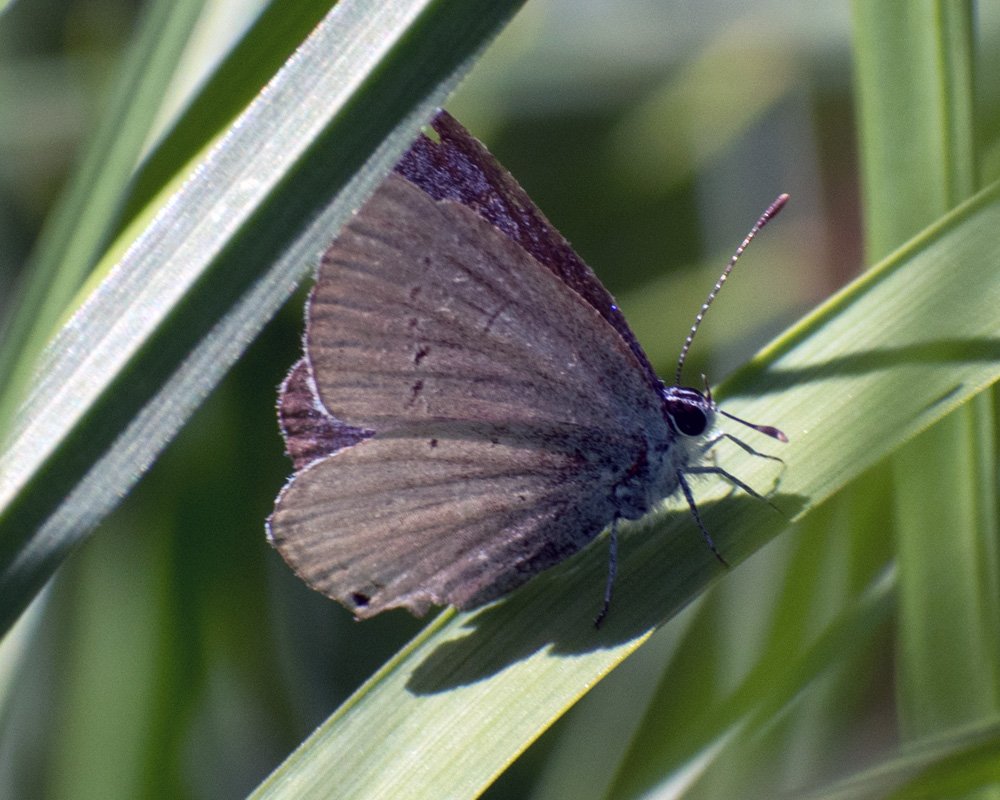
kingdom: Animalia
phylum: Arthropoda
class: Insecta
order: Lepidoptera
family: Lycaenidae
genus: Elkalyce
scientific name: Elkalyce amyntula
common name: Western Tailed-Blue
